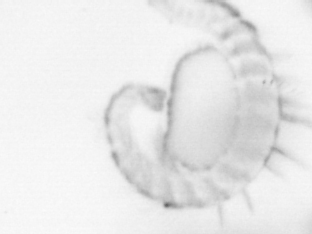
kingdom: Animalia
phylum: Annelida
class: Polychaeta
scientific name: Polychaeta
